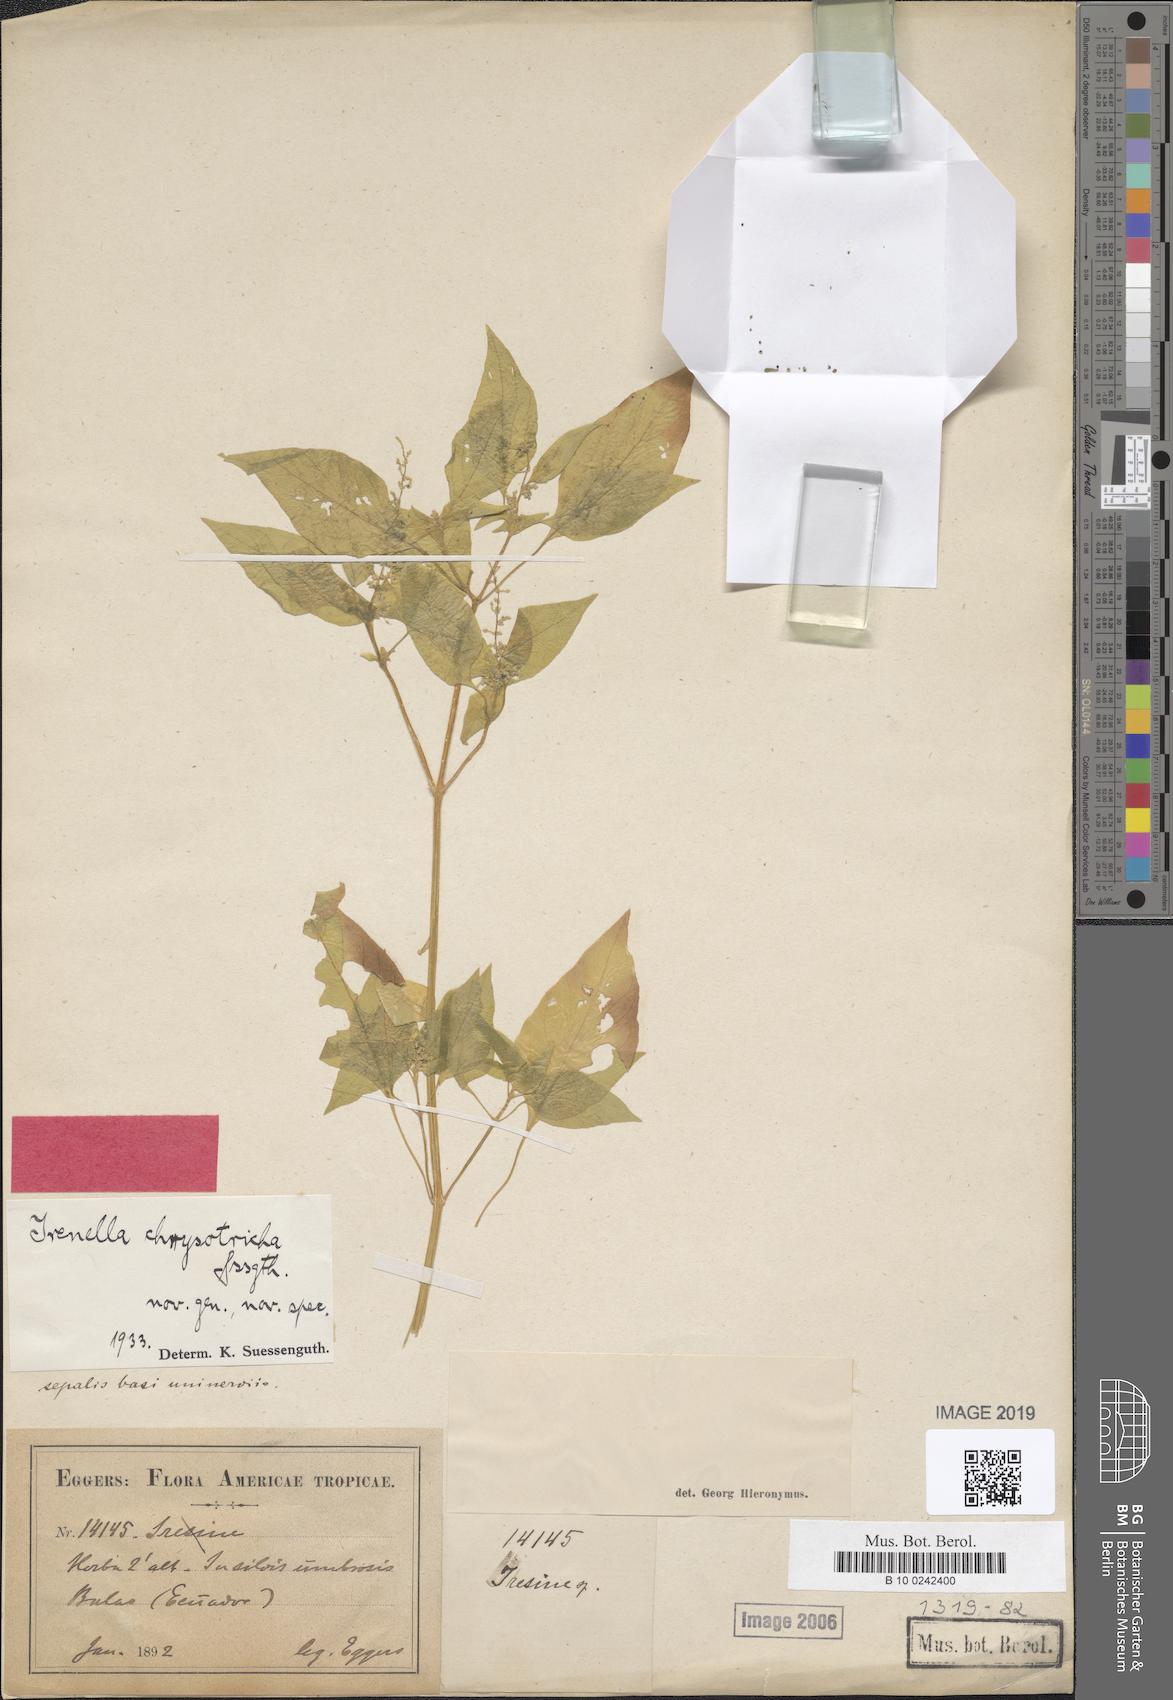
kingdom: Plantae
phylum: Tracheophyta
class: Magnoliopsida
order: Caryophyllales
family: Amaranthaceae
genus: Iresine
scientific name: Iresine chrysotricha
